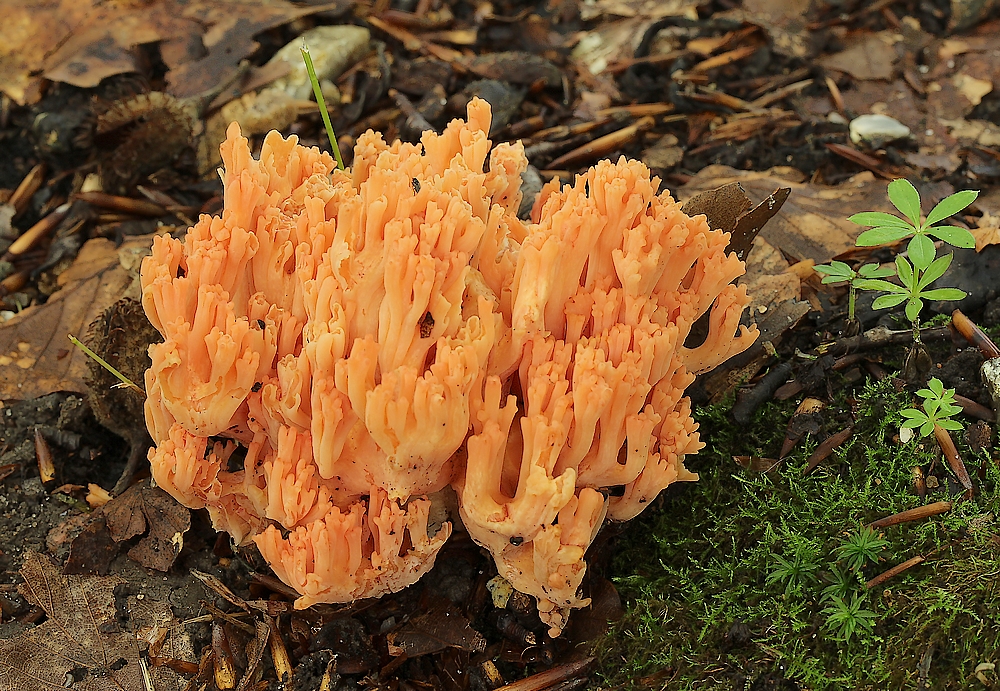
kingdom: Fungi
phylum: Basidiomycota
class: Agaricomycetes
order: Gomphales
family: Gomphaceae
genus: Ramaria
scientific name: Ramaria fagetorum
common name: abrikos-koralsvamp
